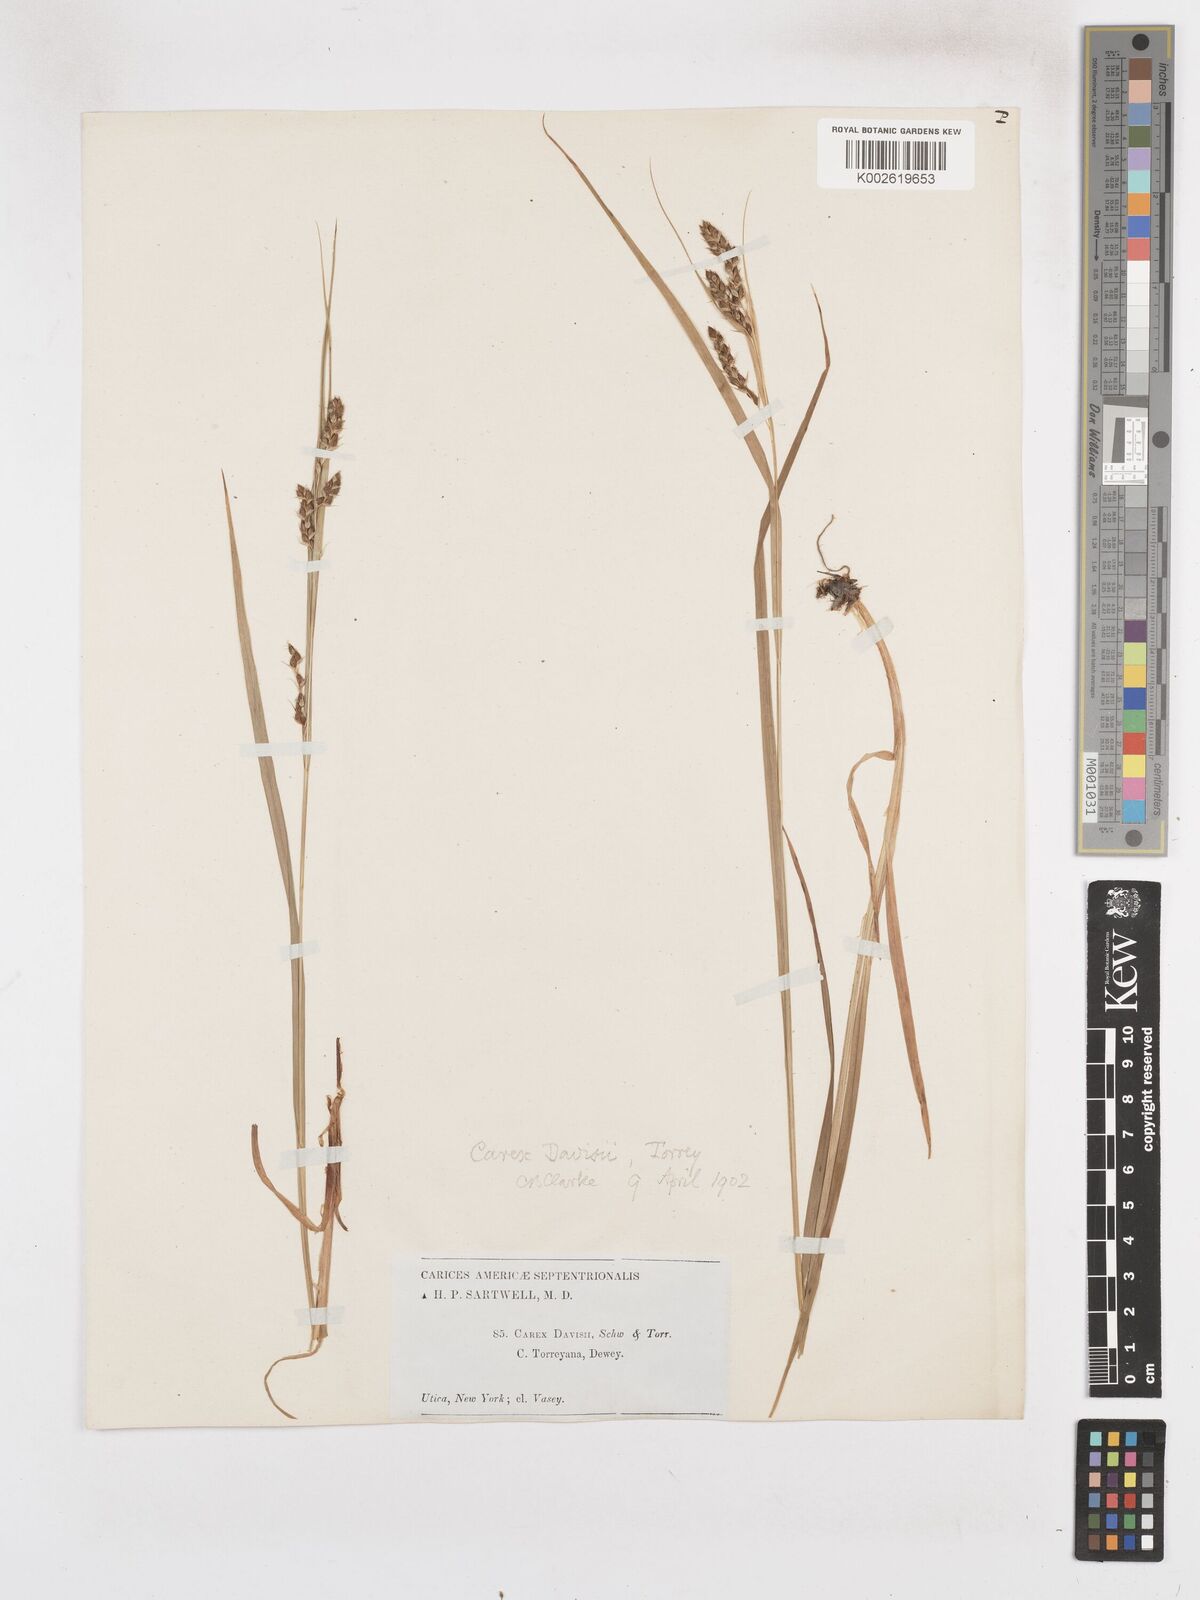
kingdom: Plantae
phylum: Tracheophyta
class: Liliopsida
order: Poales
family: Cyperaceae
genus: Carex
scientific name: Carex davisii
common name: Davis' sedge
